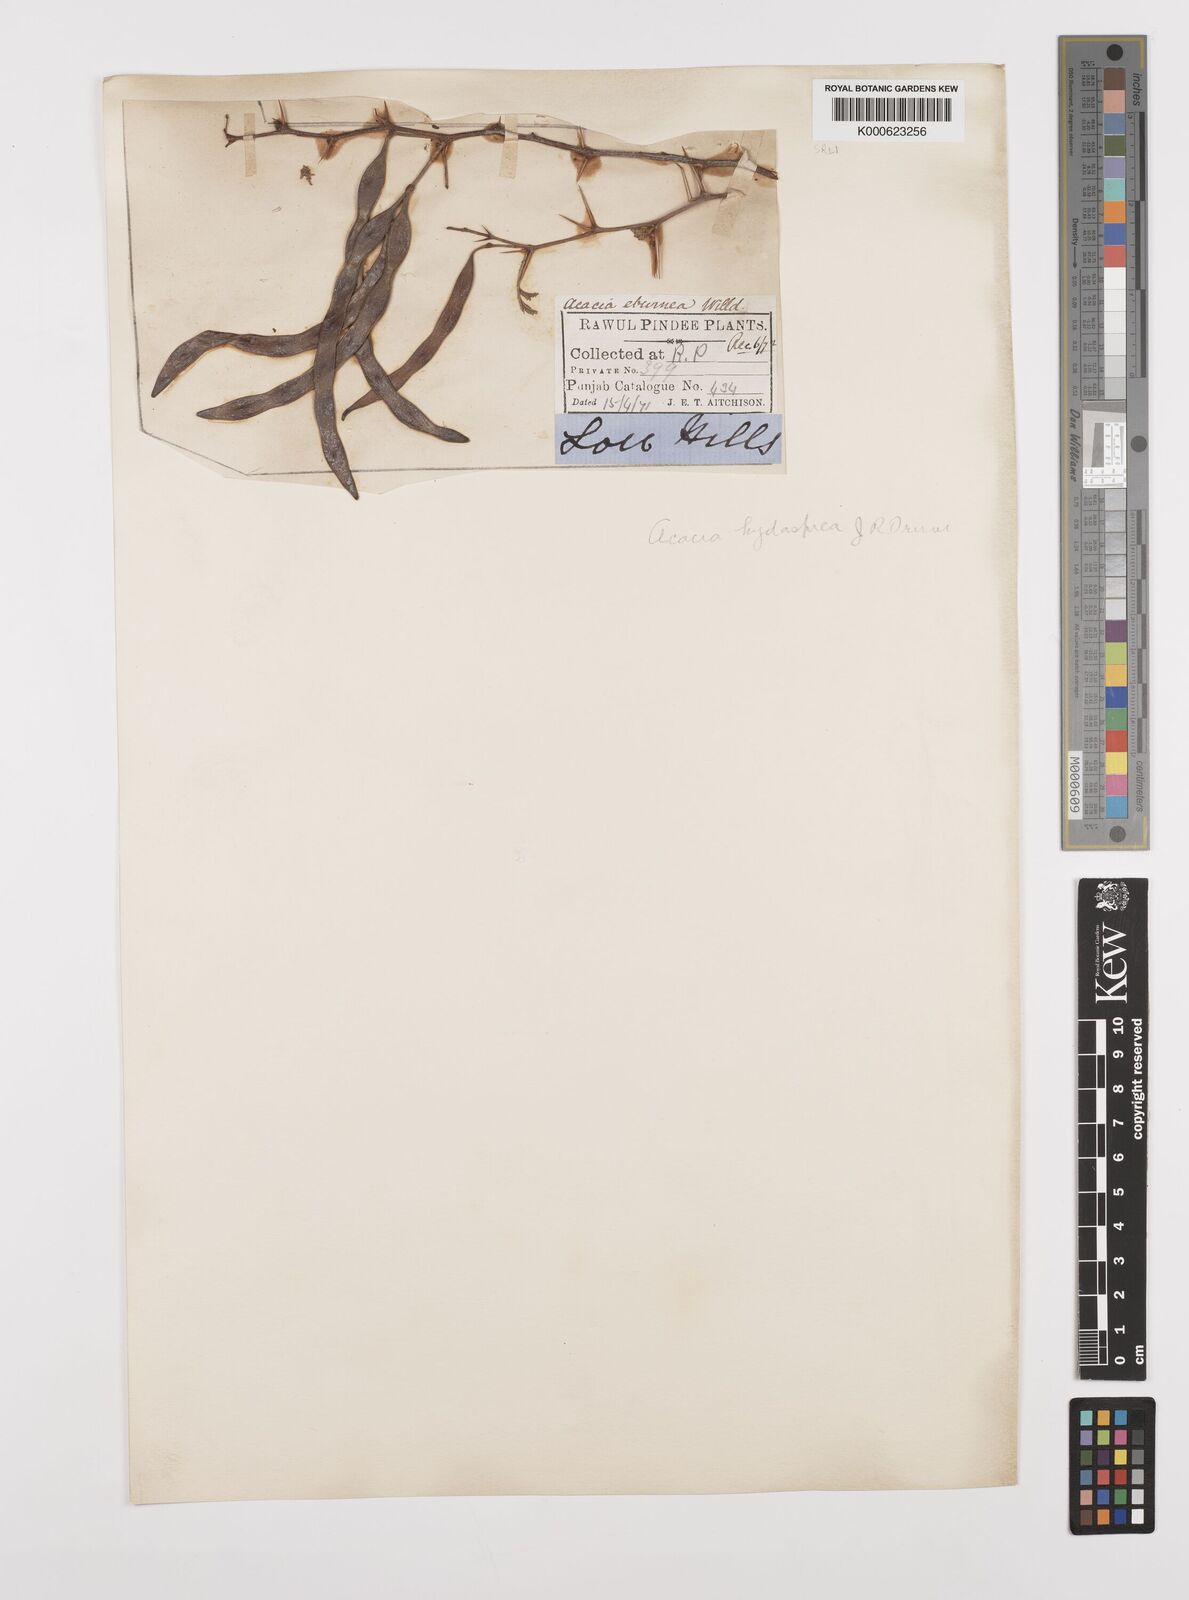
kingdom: Plantae
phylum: Tracheophyta
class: Magnoliopsida
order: Fabales
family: Fabaceae
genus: Vachellia
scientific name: Vachellia hydaspica
